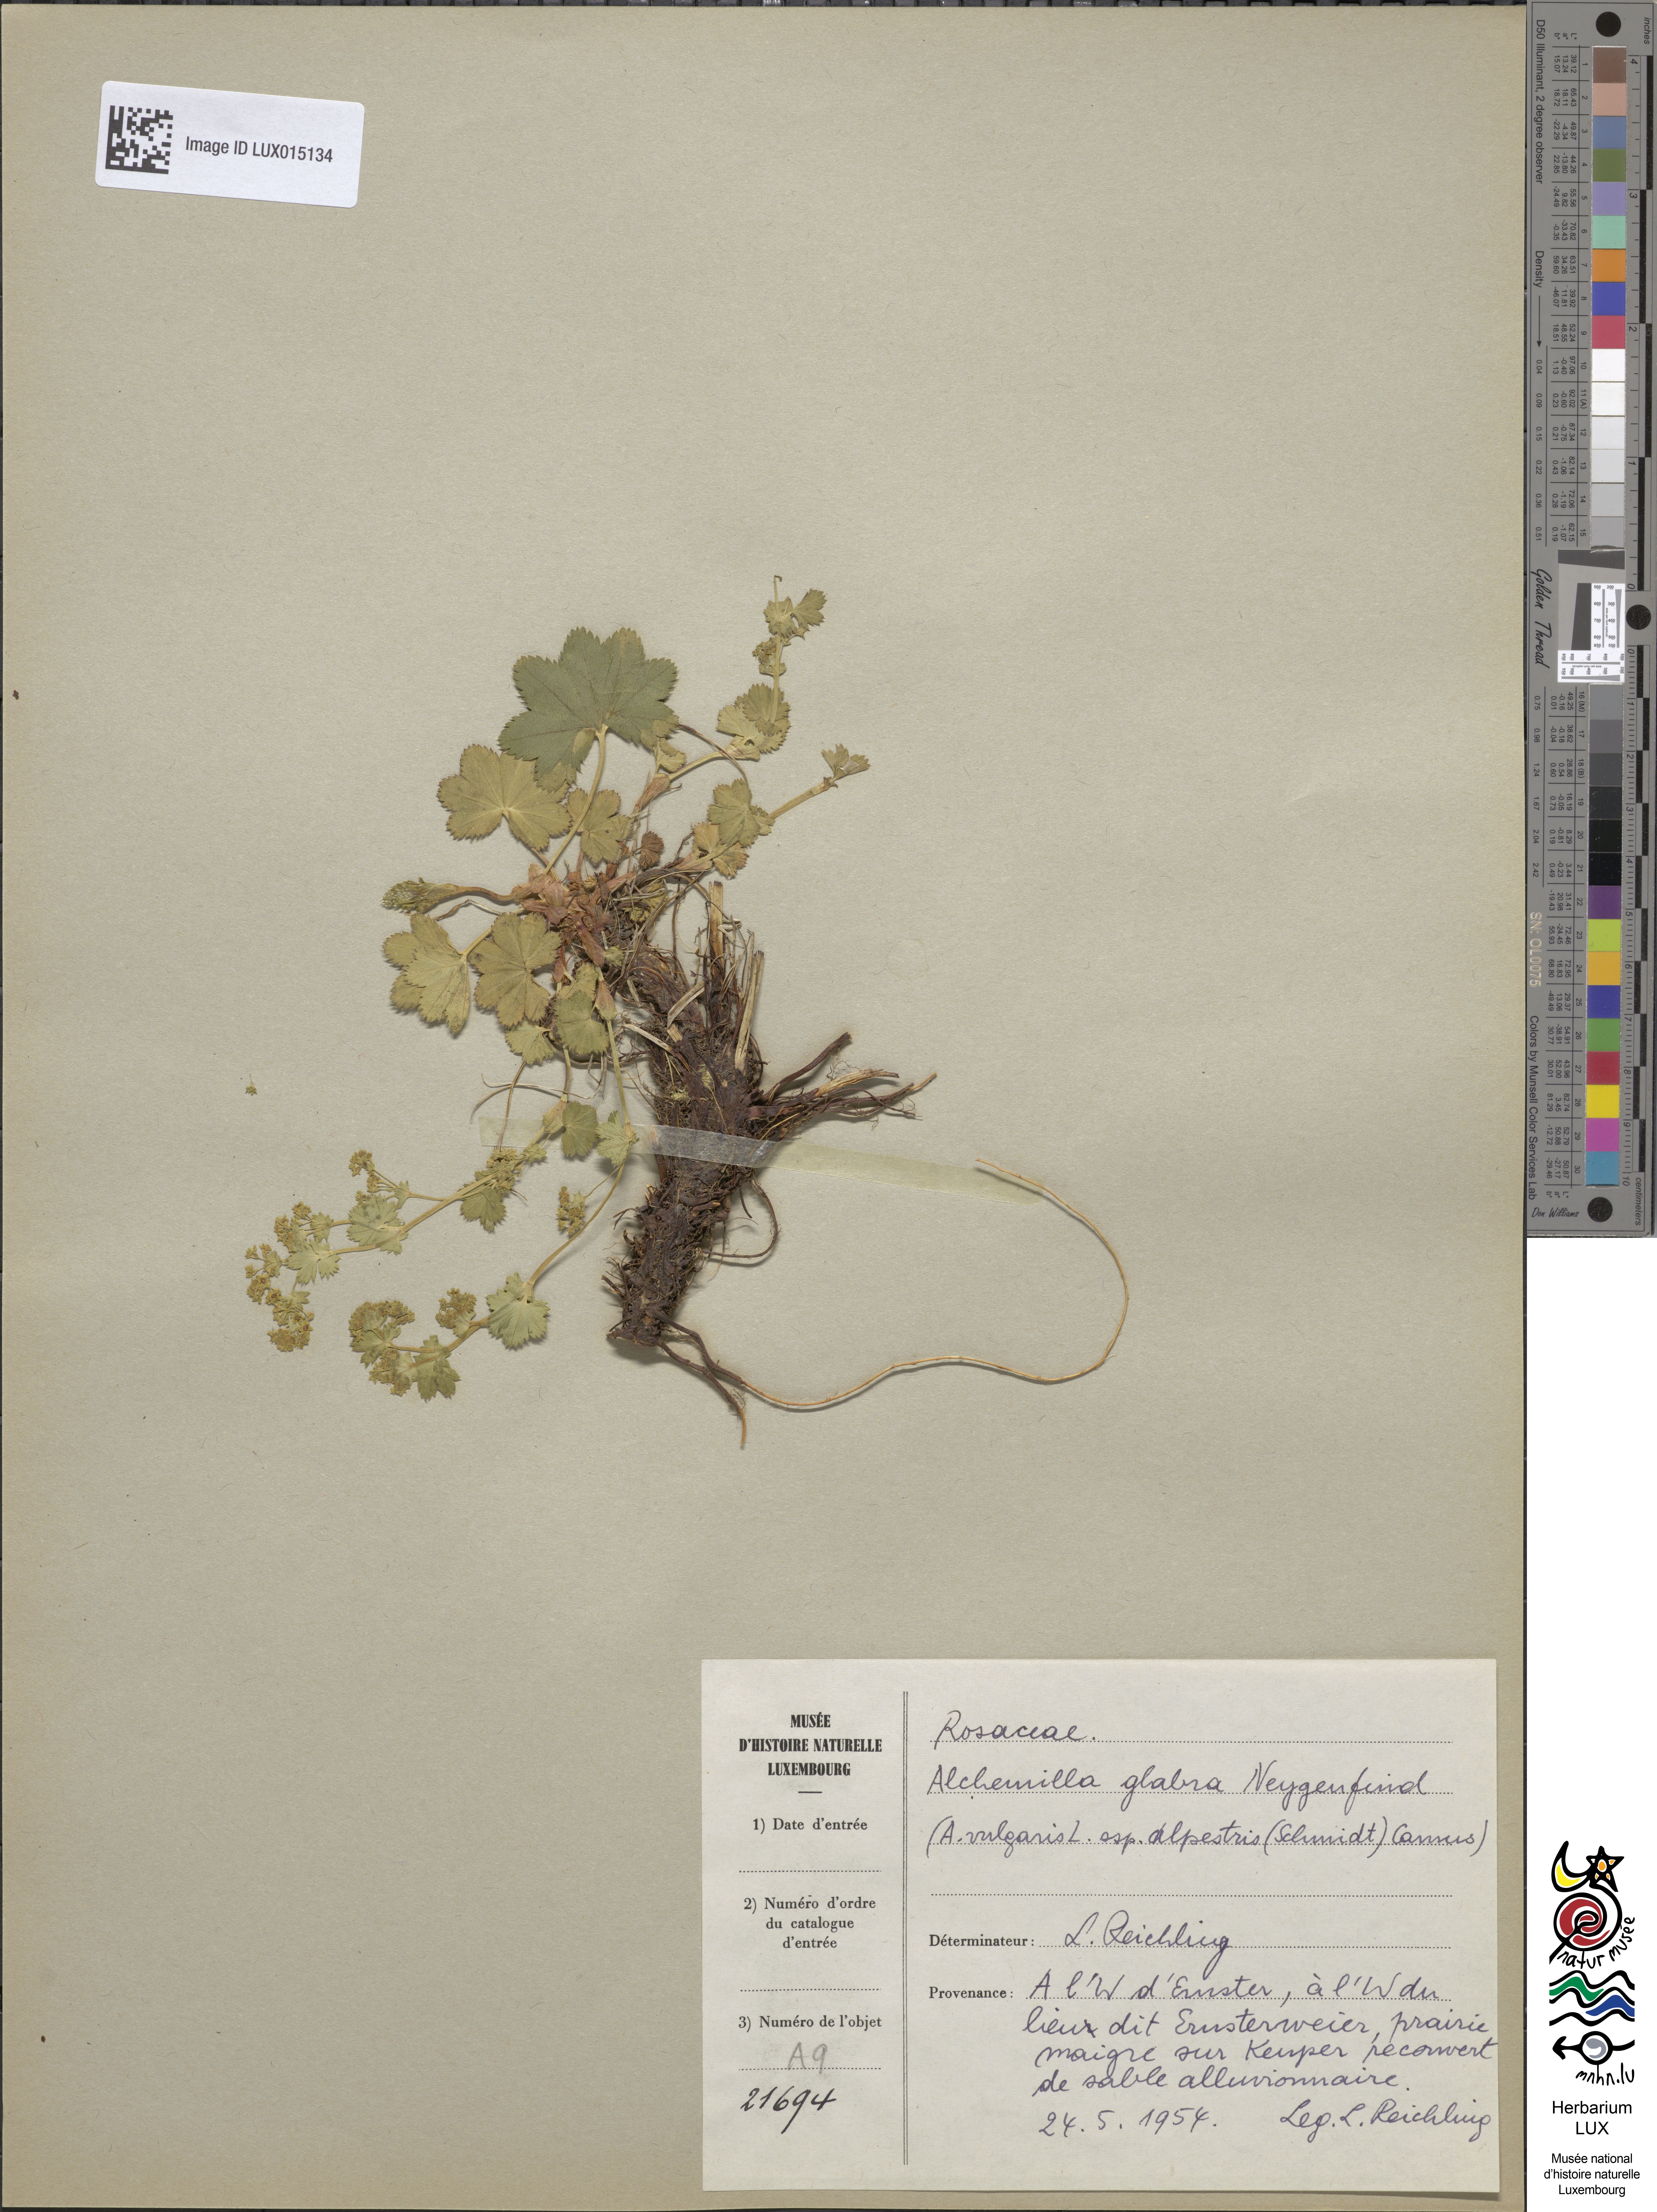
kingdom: Plantae
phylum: Tracheophyta
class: Magnoliopsida
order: Rosales
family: Rosaceae
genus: Alchemilla
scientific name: Alchemilla glabra
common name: Smooth lady's-mantle
